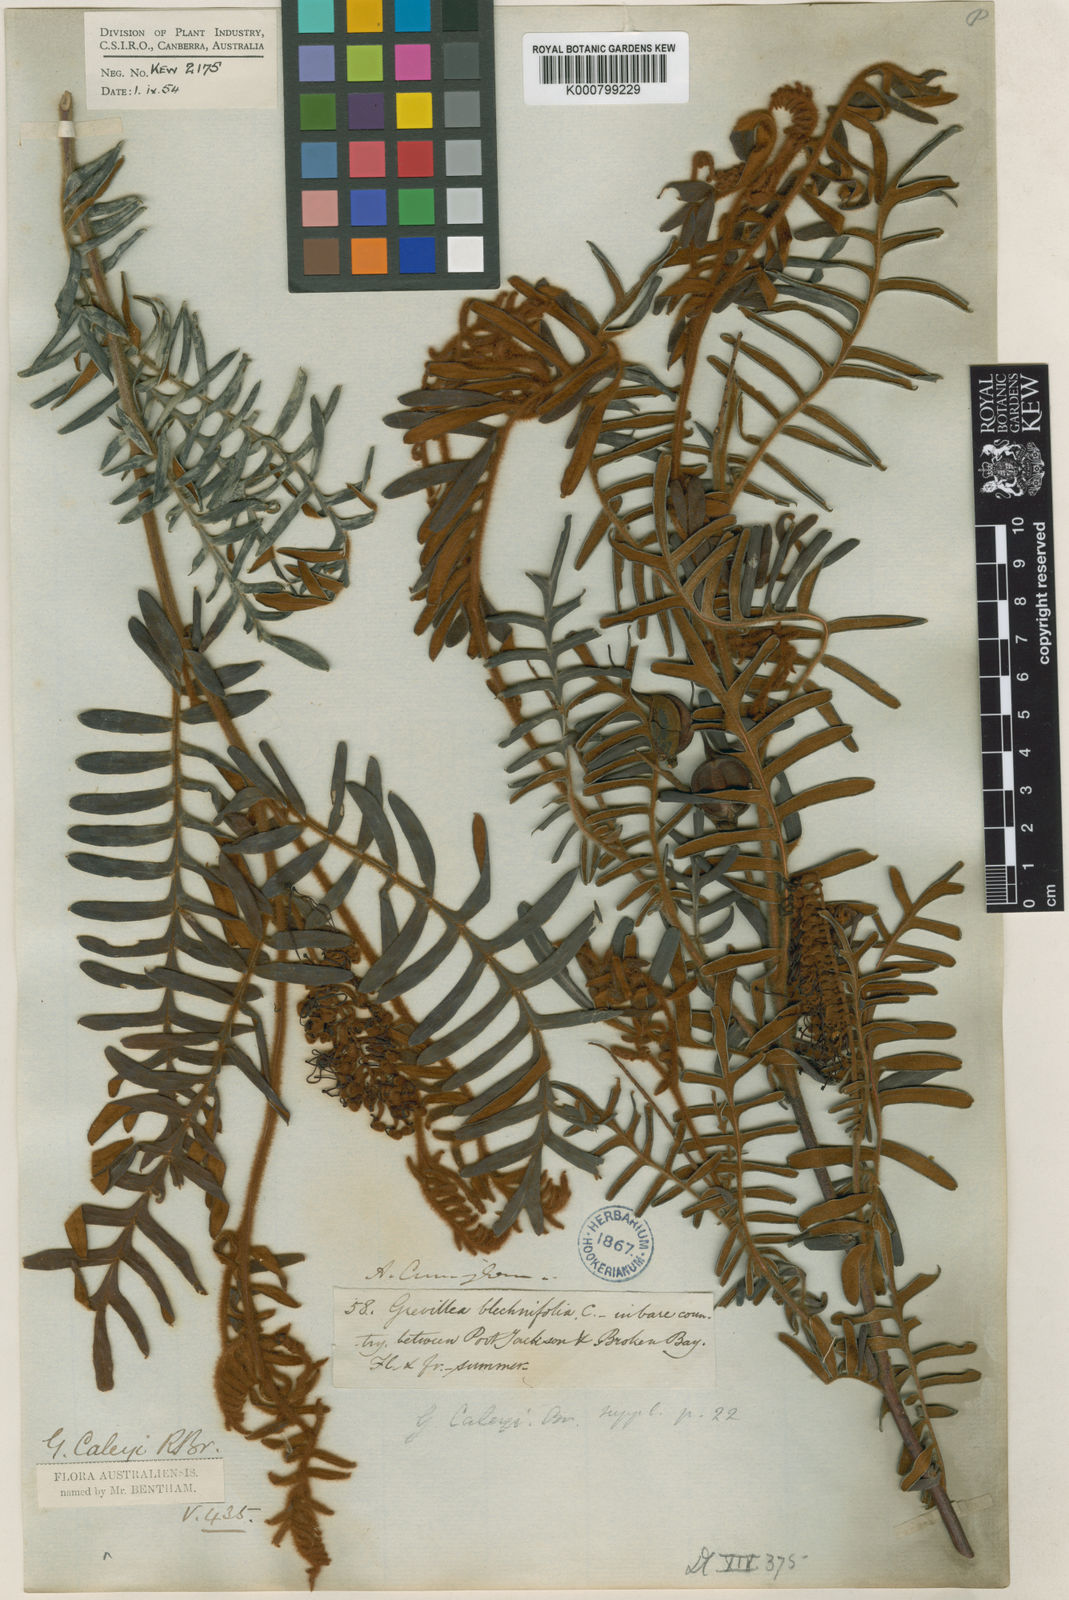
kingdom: Plantae
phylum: Tracheophyta
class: Magnoliopsida
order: Proteales
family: Proteaceae
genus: Grevillea
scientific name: Grevillea caleyi
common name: Caley's grevillea
